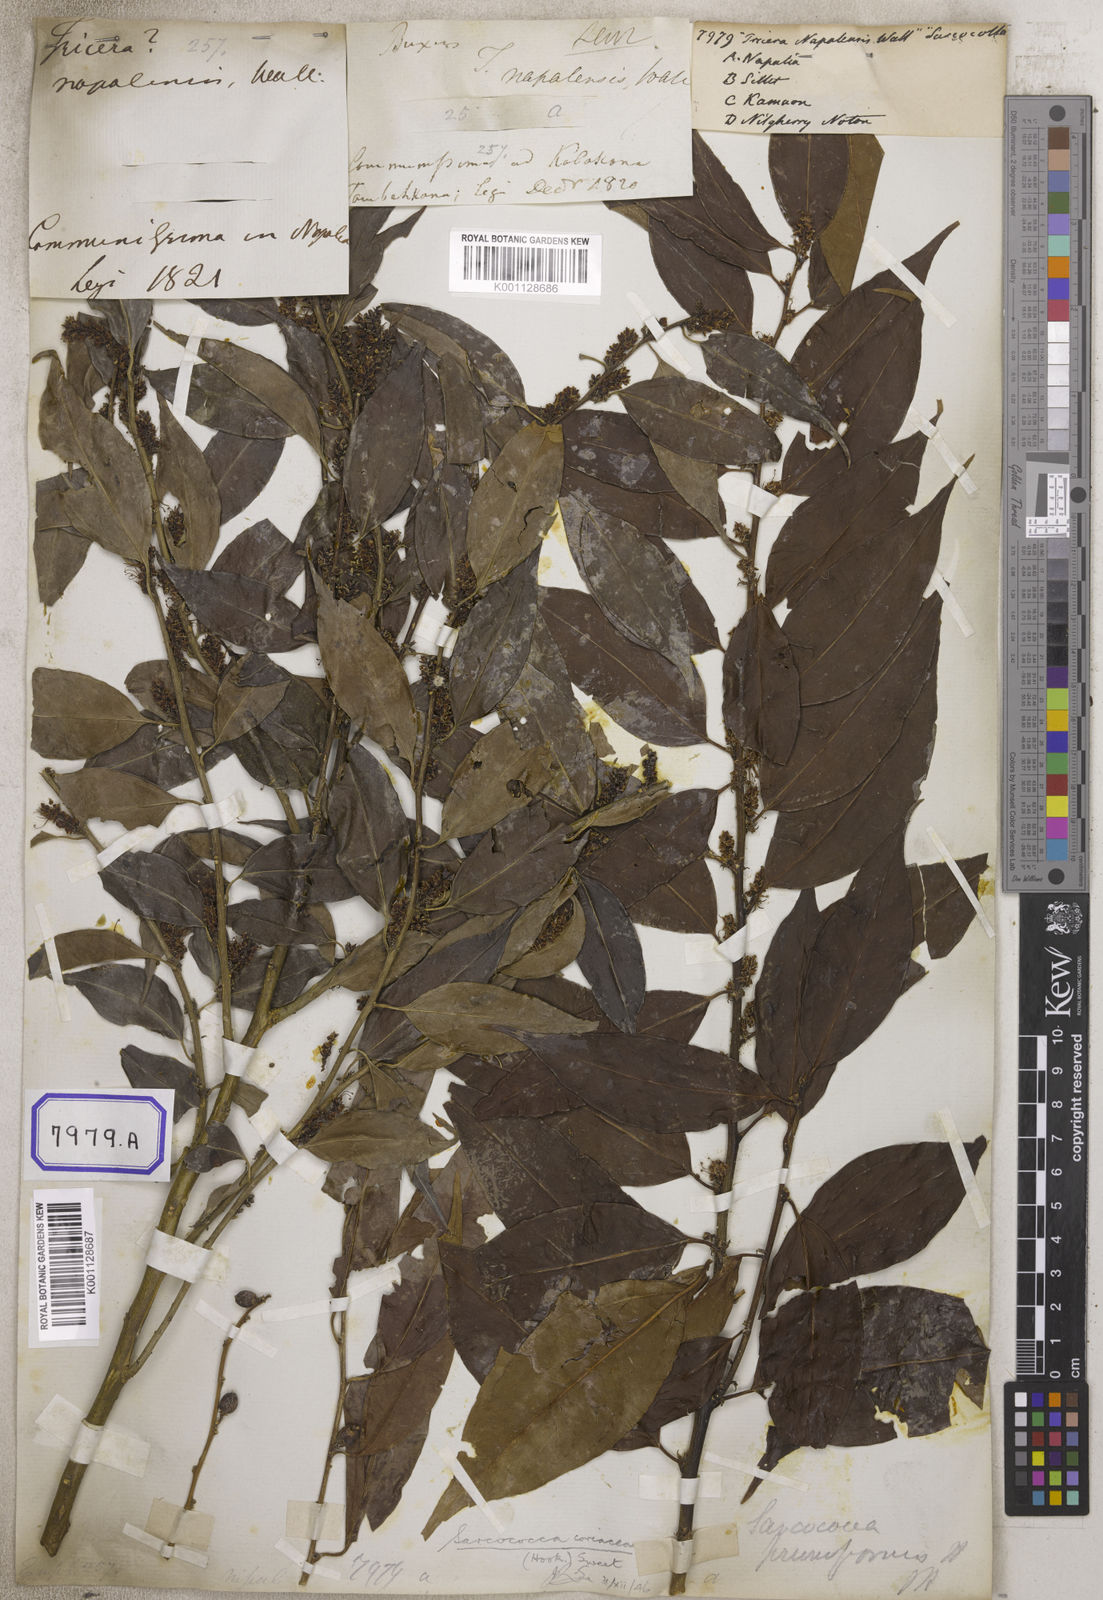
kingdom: Plantae
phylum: Tracheophyta
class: Magnoliopsida
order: Malpighiales
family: Euphorbiaceae
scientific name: Euphorbiaceae
